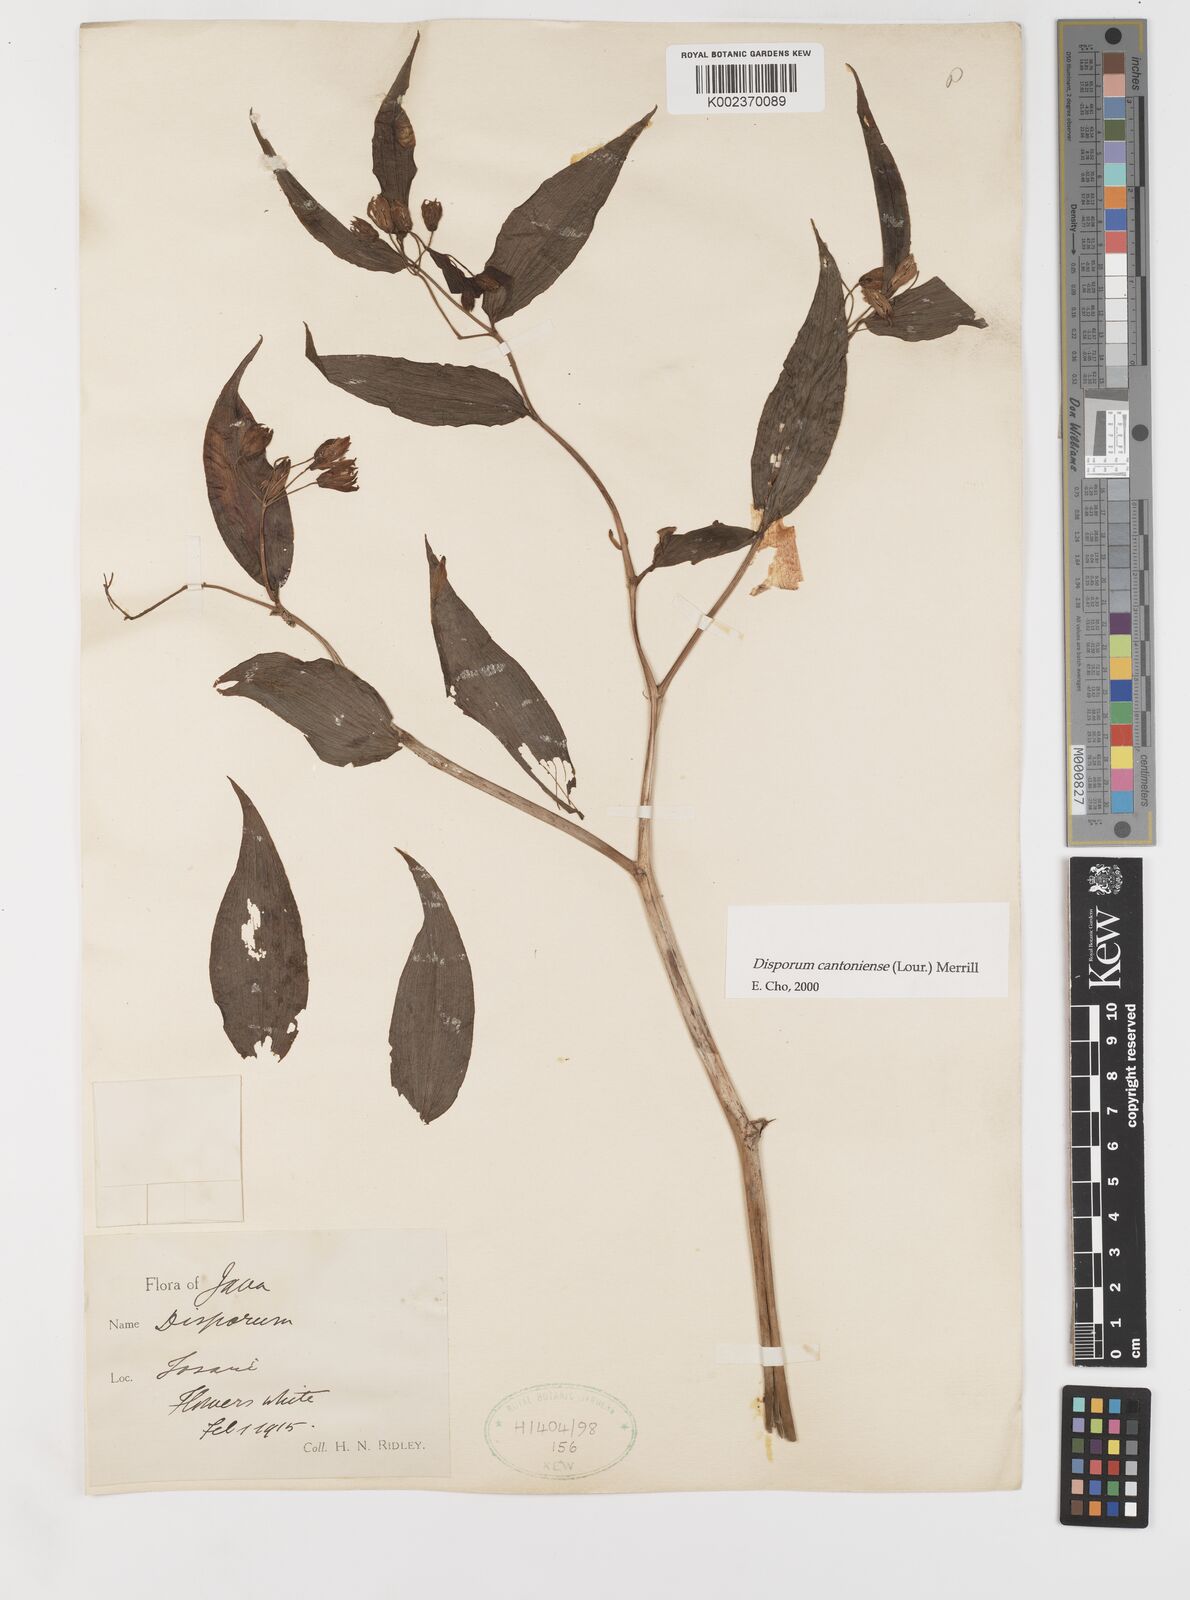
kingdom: Plantae
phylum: Tracheophyta
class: Liliopsida
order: Liliales
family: Colchicaceae
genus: Disporum
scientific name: Disporum cantoniense
